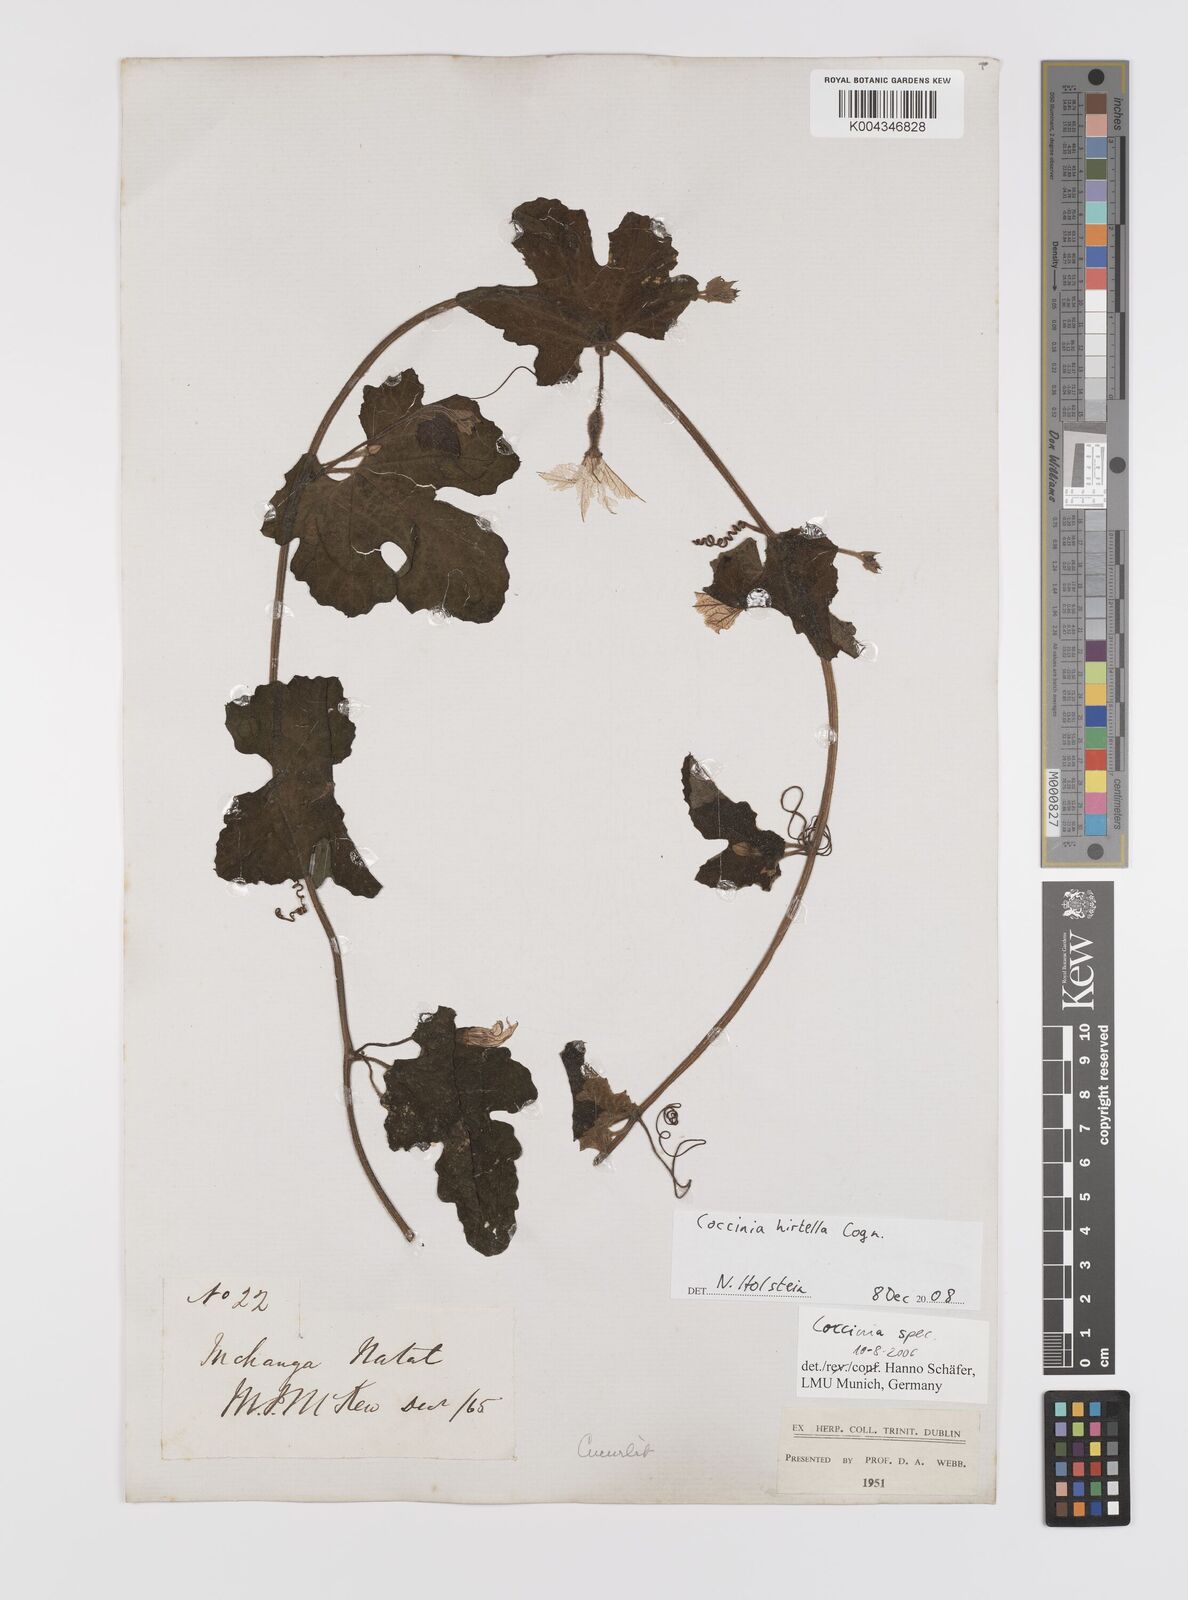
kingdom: Plantae
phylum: Tracheophyta
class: Magnoliopsida
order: Cucurbitales
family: Cucurbitaceae
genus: Coccinia
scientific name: Coccinia hirtella
